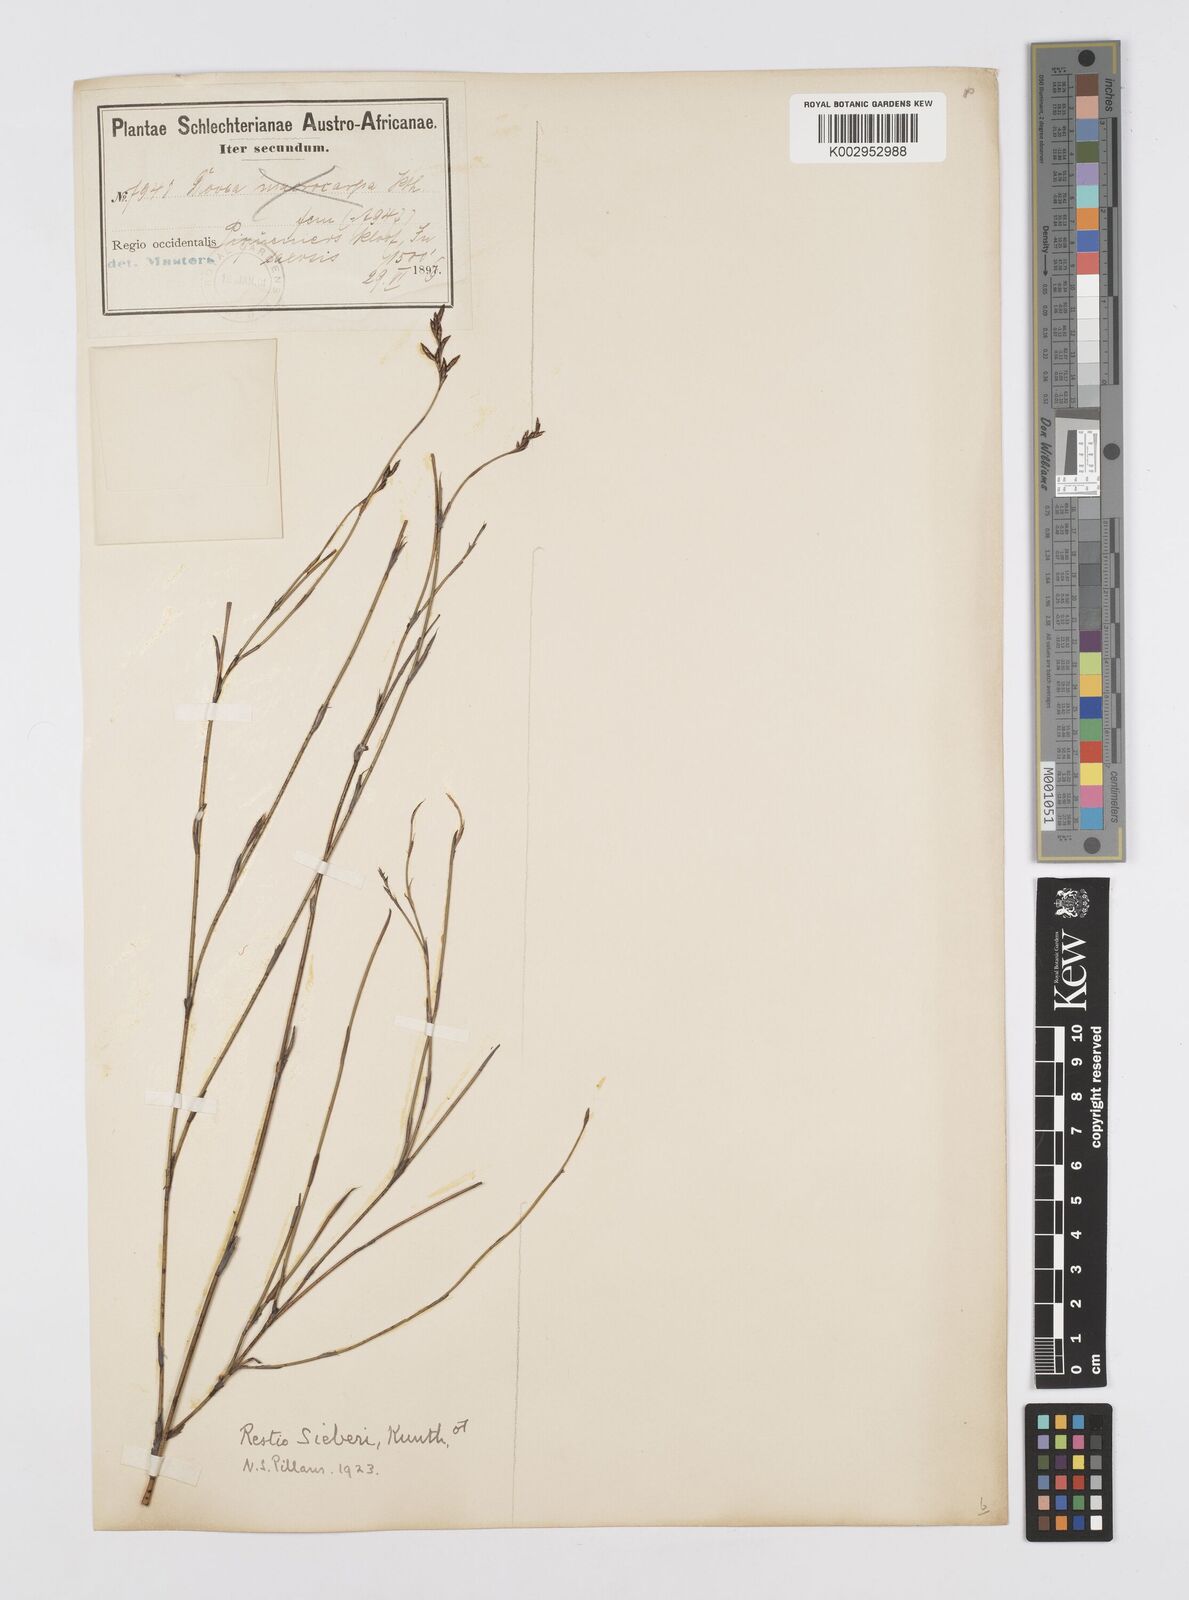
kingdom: Plantae
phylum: Tracheophyta
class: Liliopsida
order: Poales
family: Restionaceae
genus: Restio
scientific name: Restio sieberi
